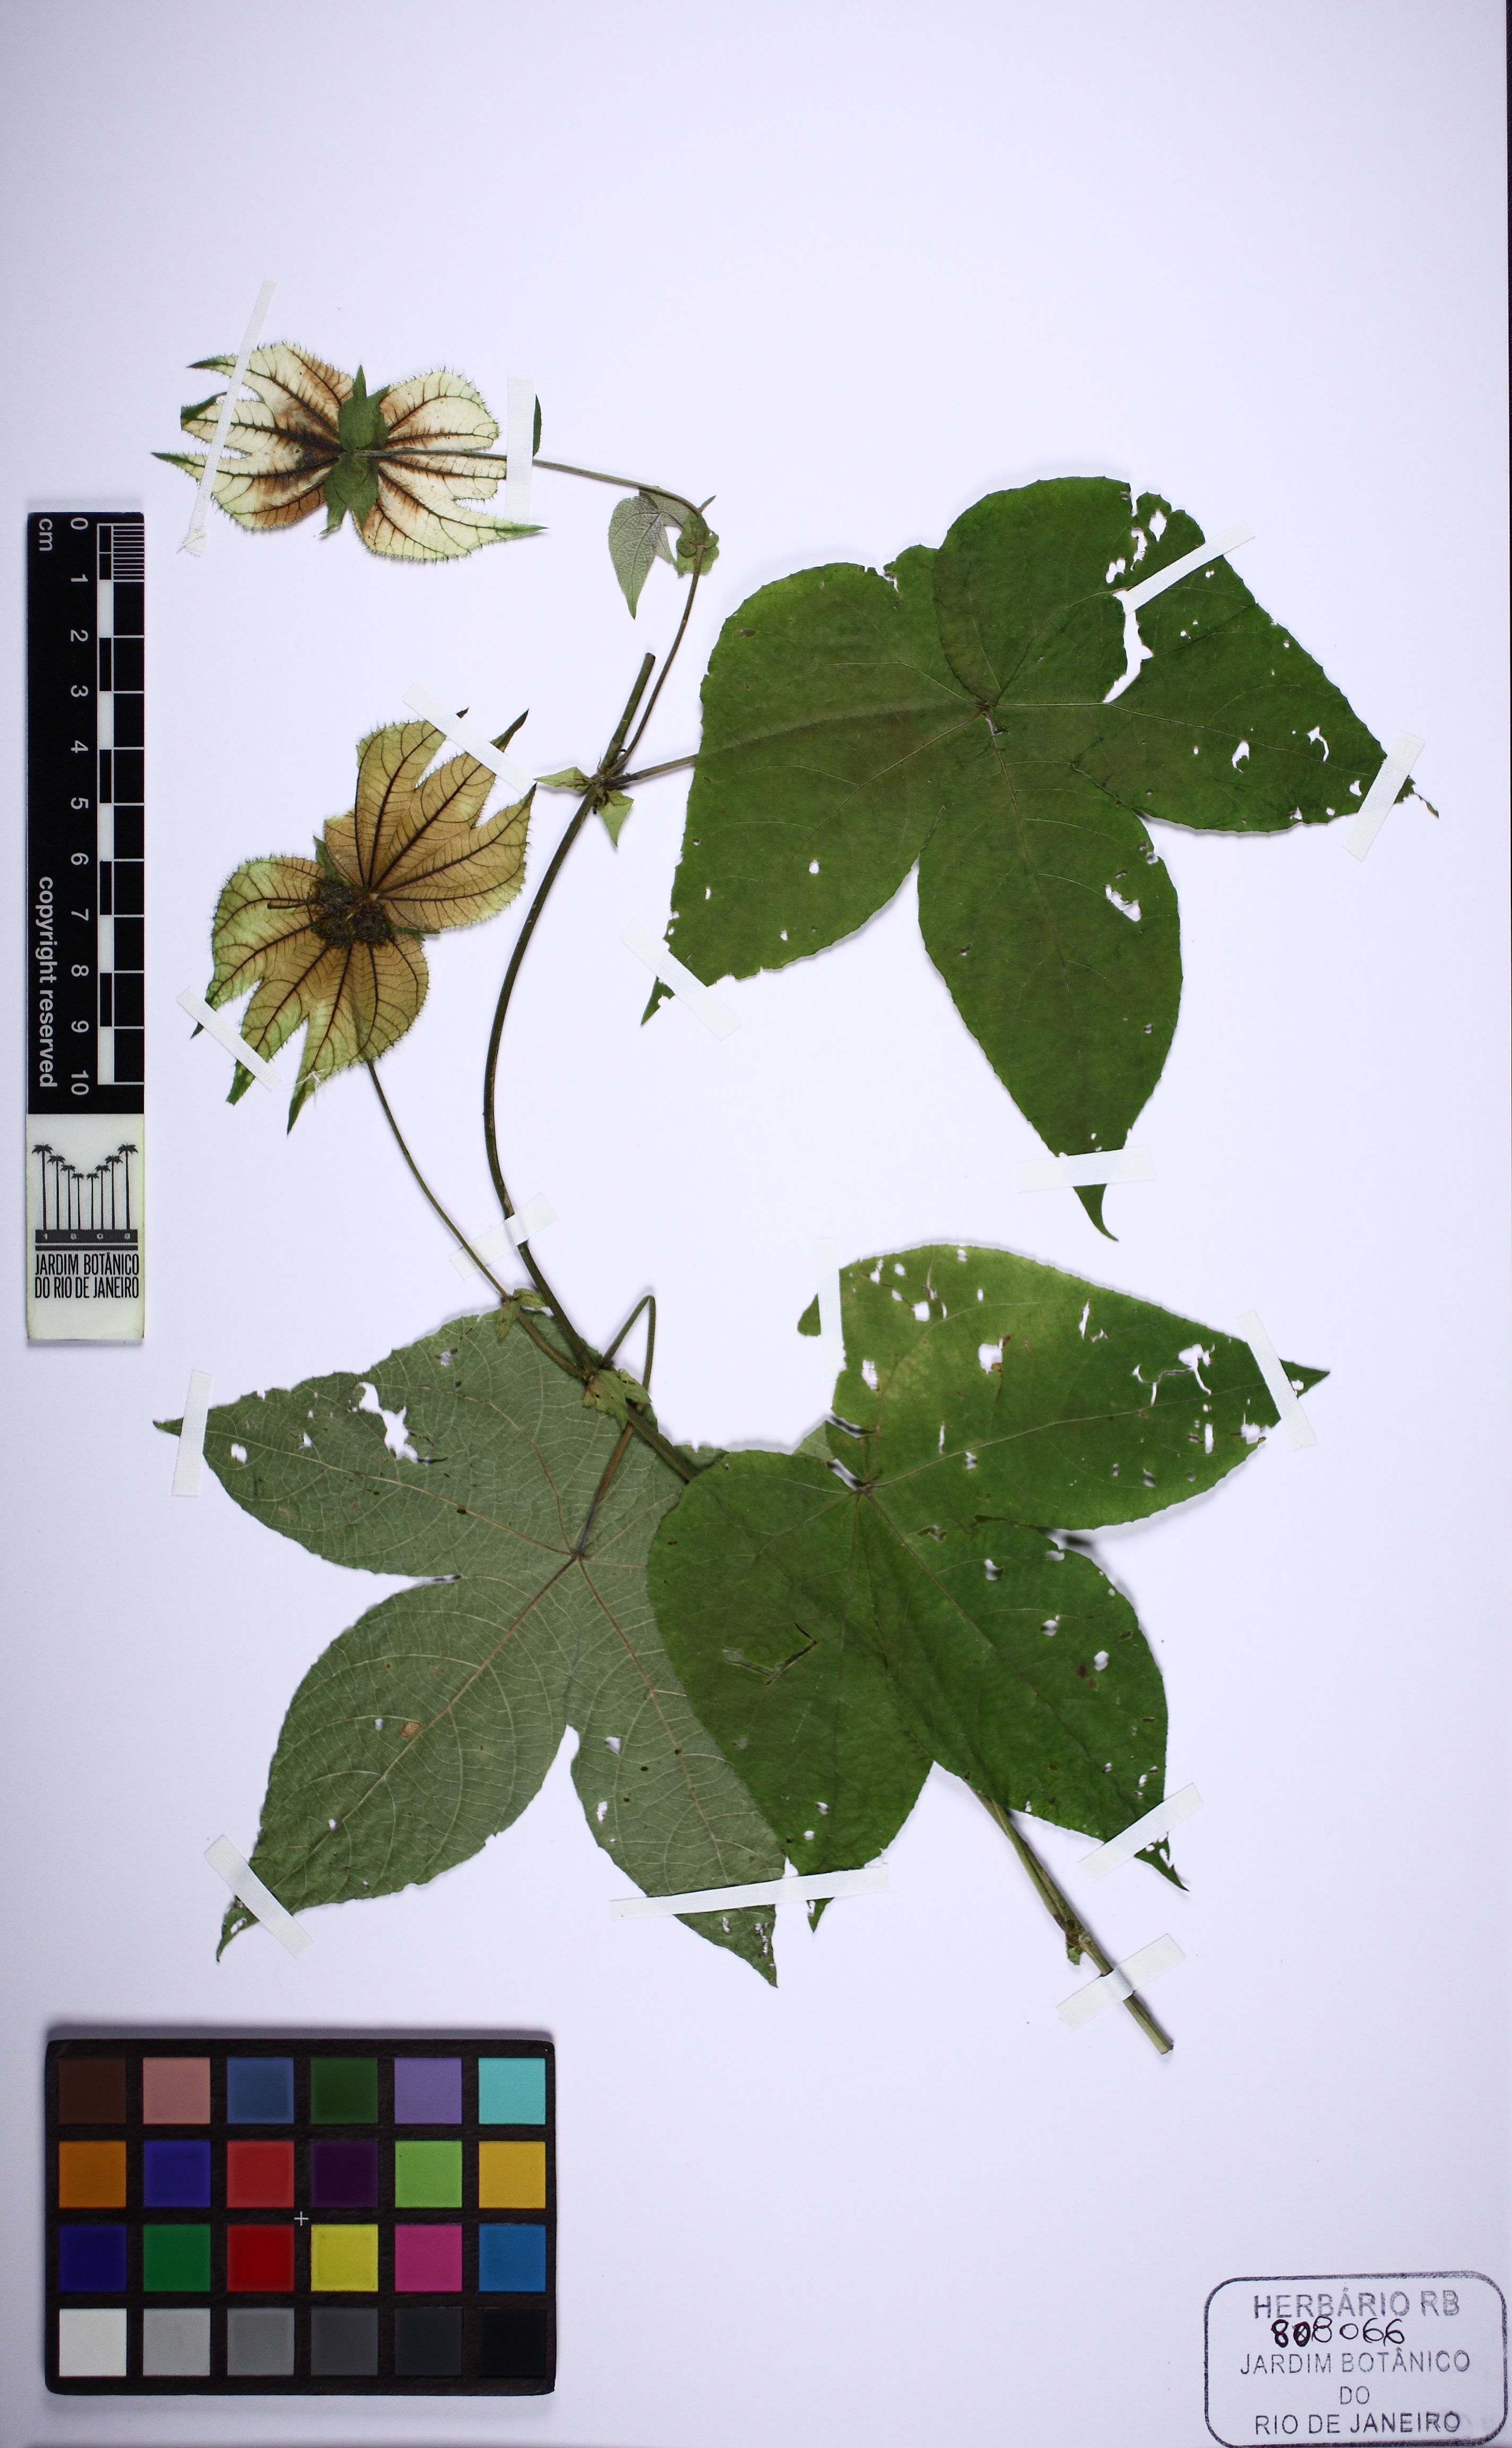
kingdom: Plantae
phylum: Tracheophyta
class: Magnoliopsida
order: Malpighiales
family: Euphorbiaceae
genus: Dalechampia
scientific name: Dalechampia stipulacea
